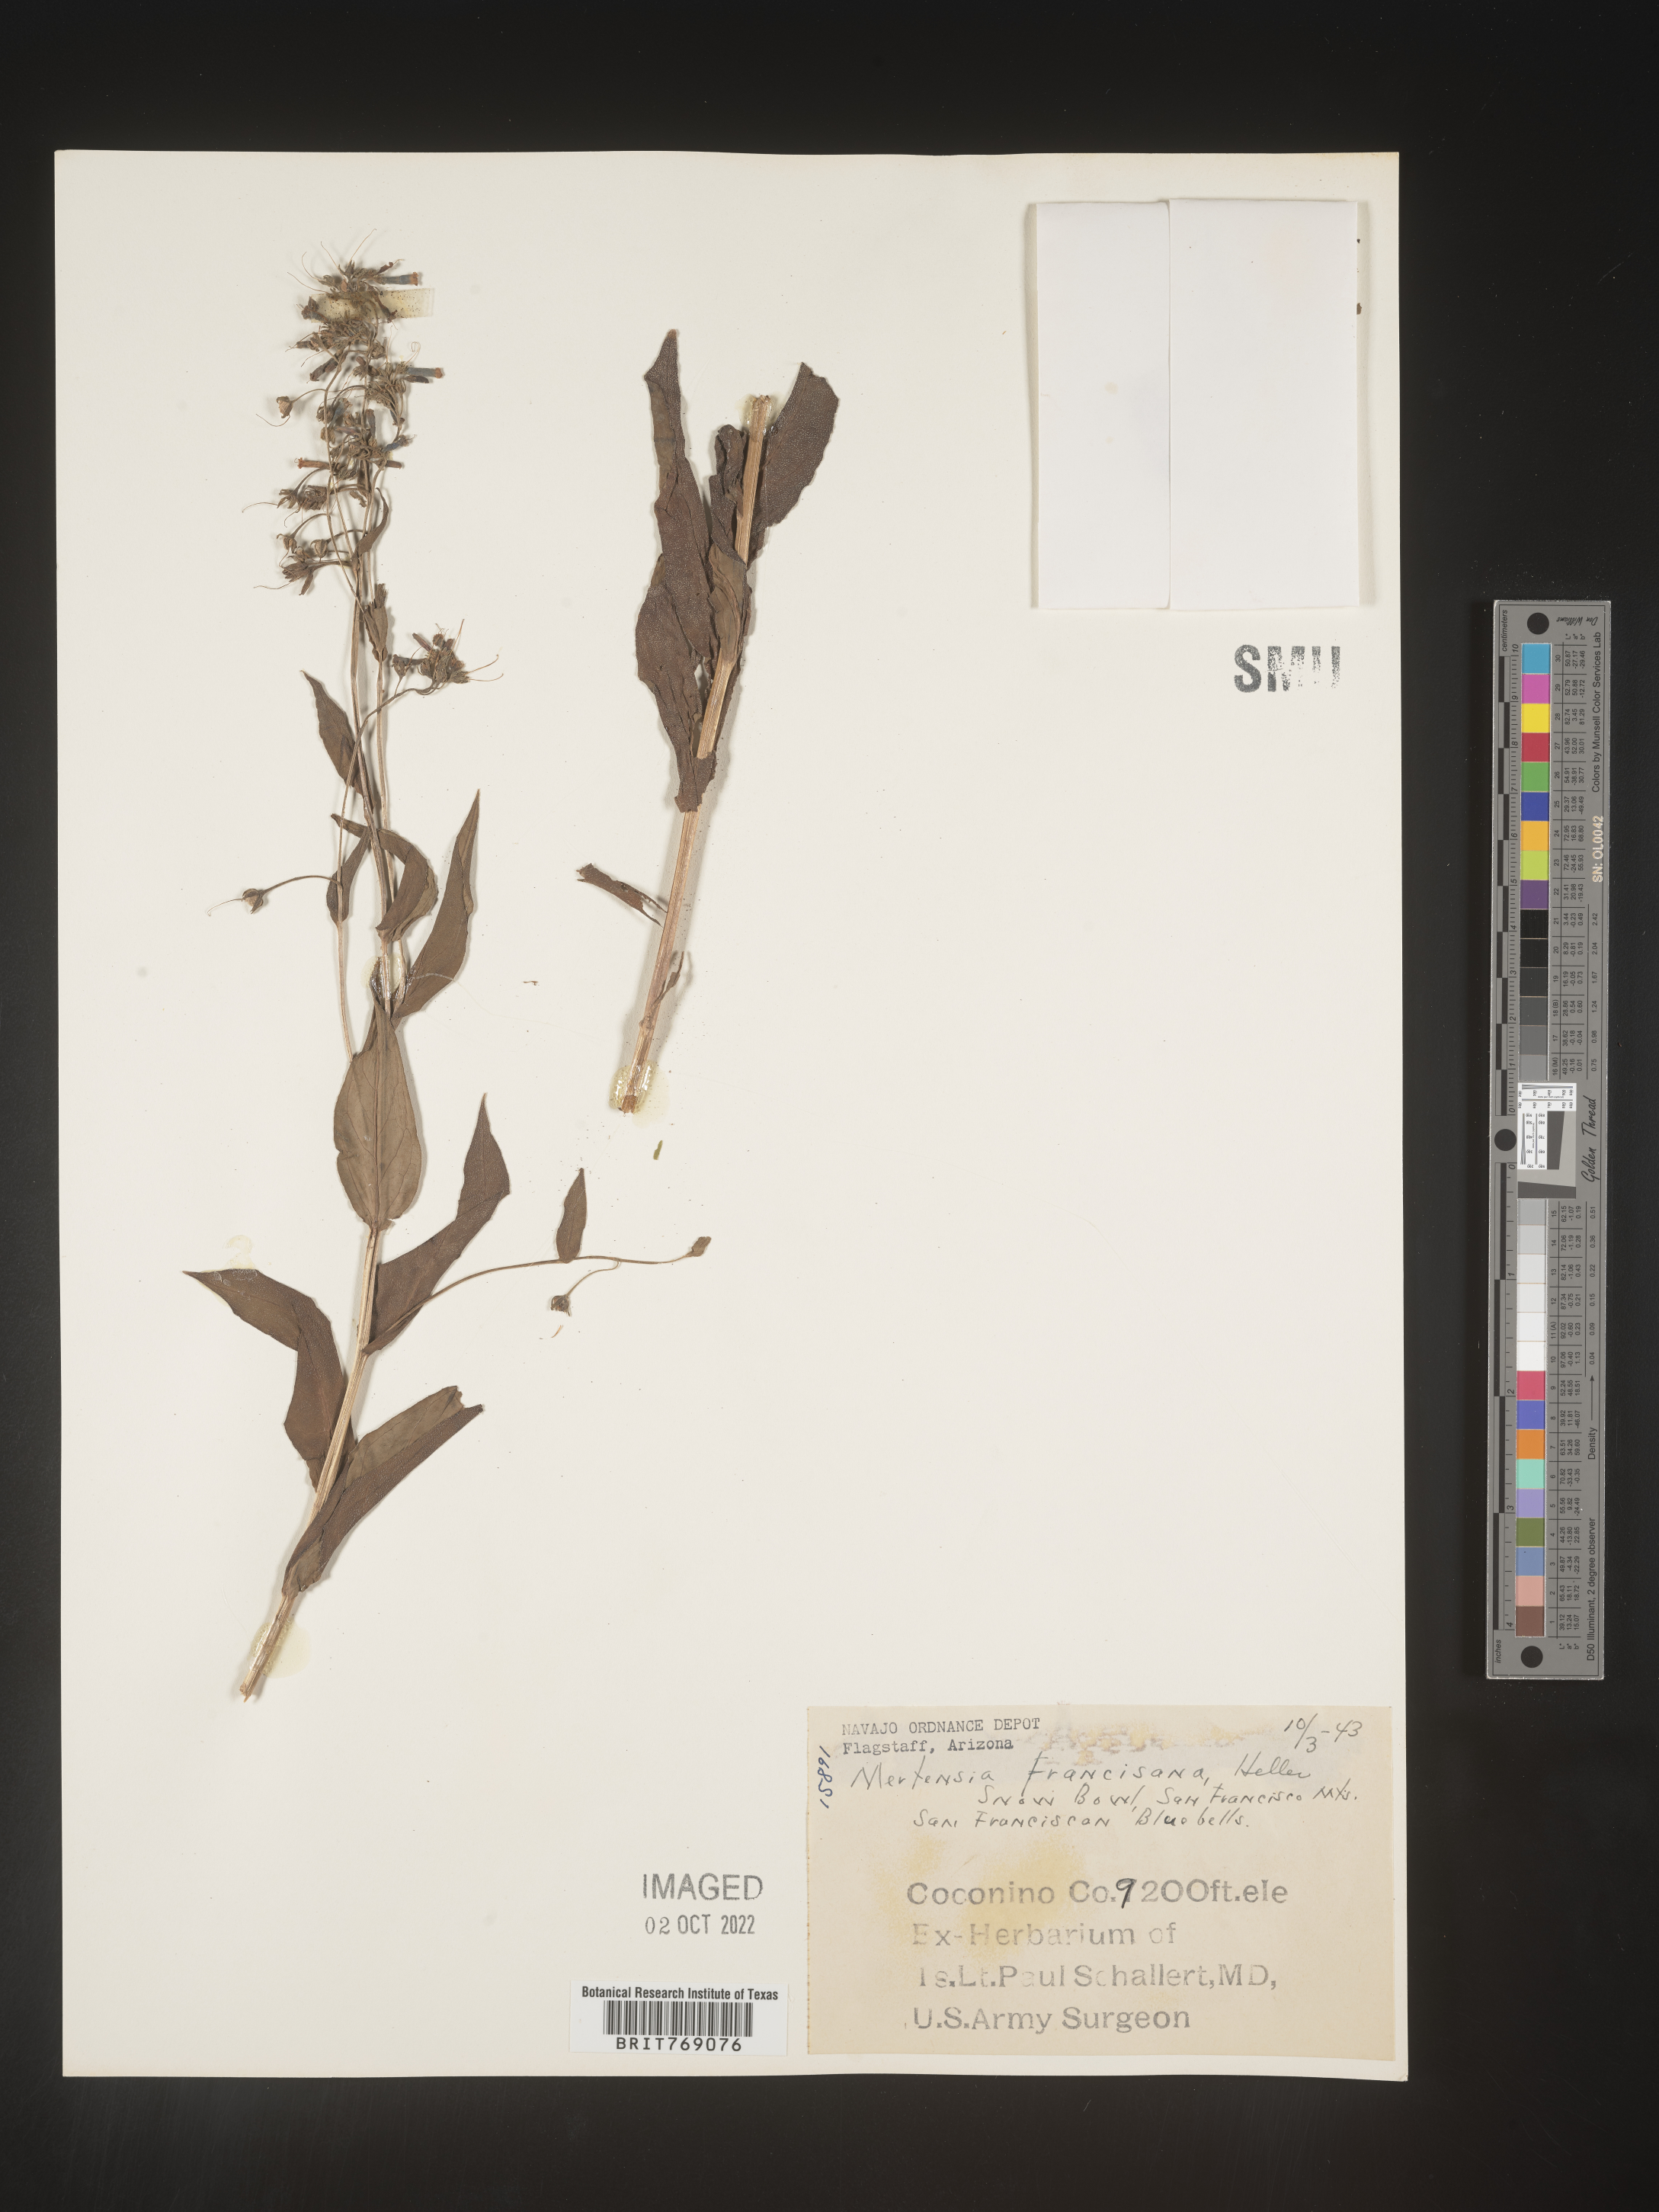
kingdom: Plantae
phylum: Tracheophyta
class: Magnoliopsida
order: Boraginales
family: Boraginaceae
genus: Mertensia
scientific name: Mertensia
